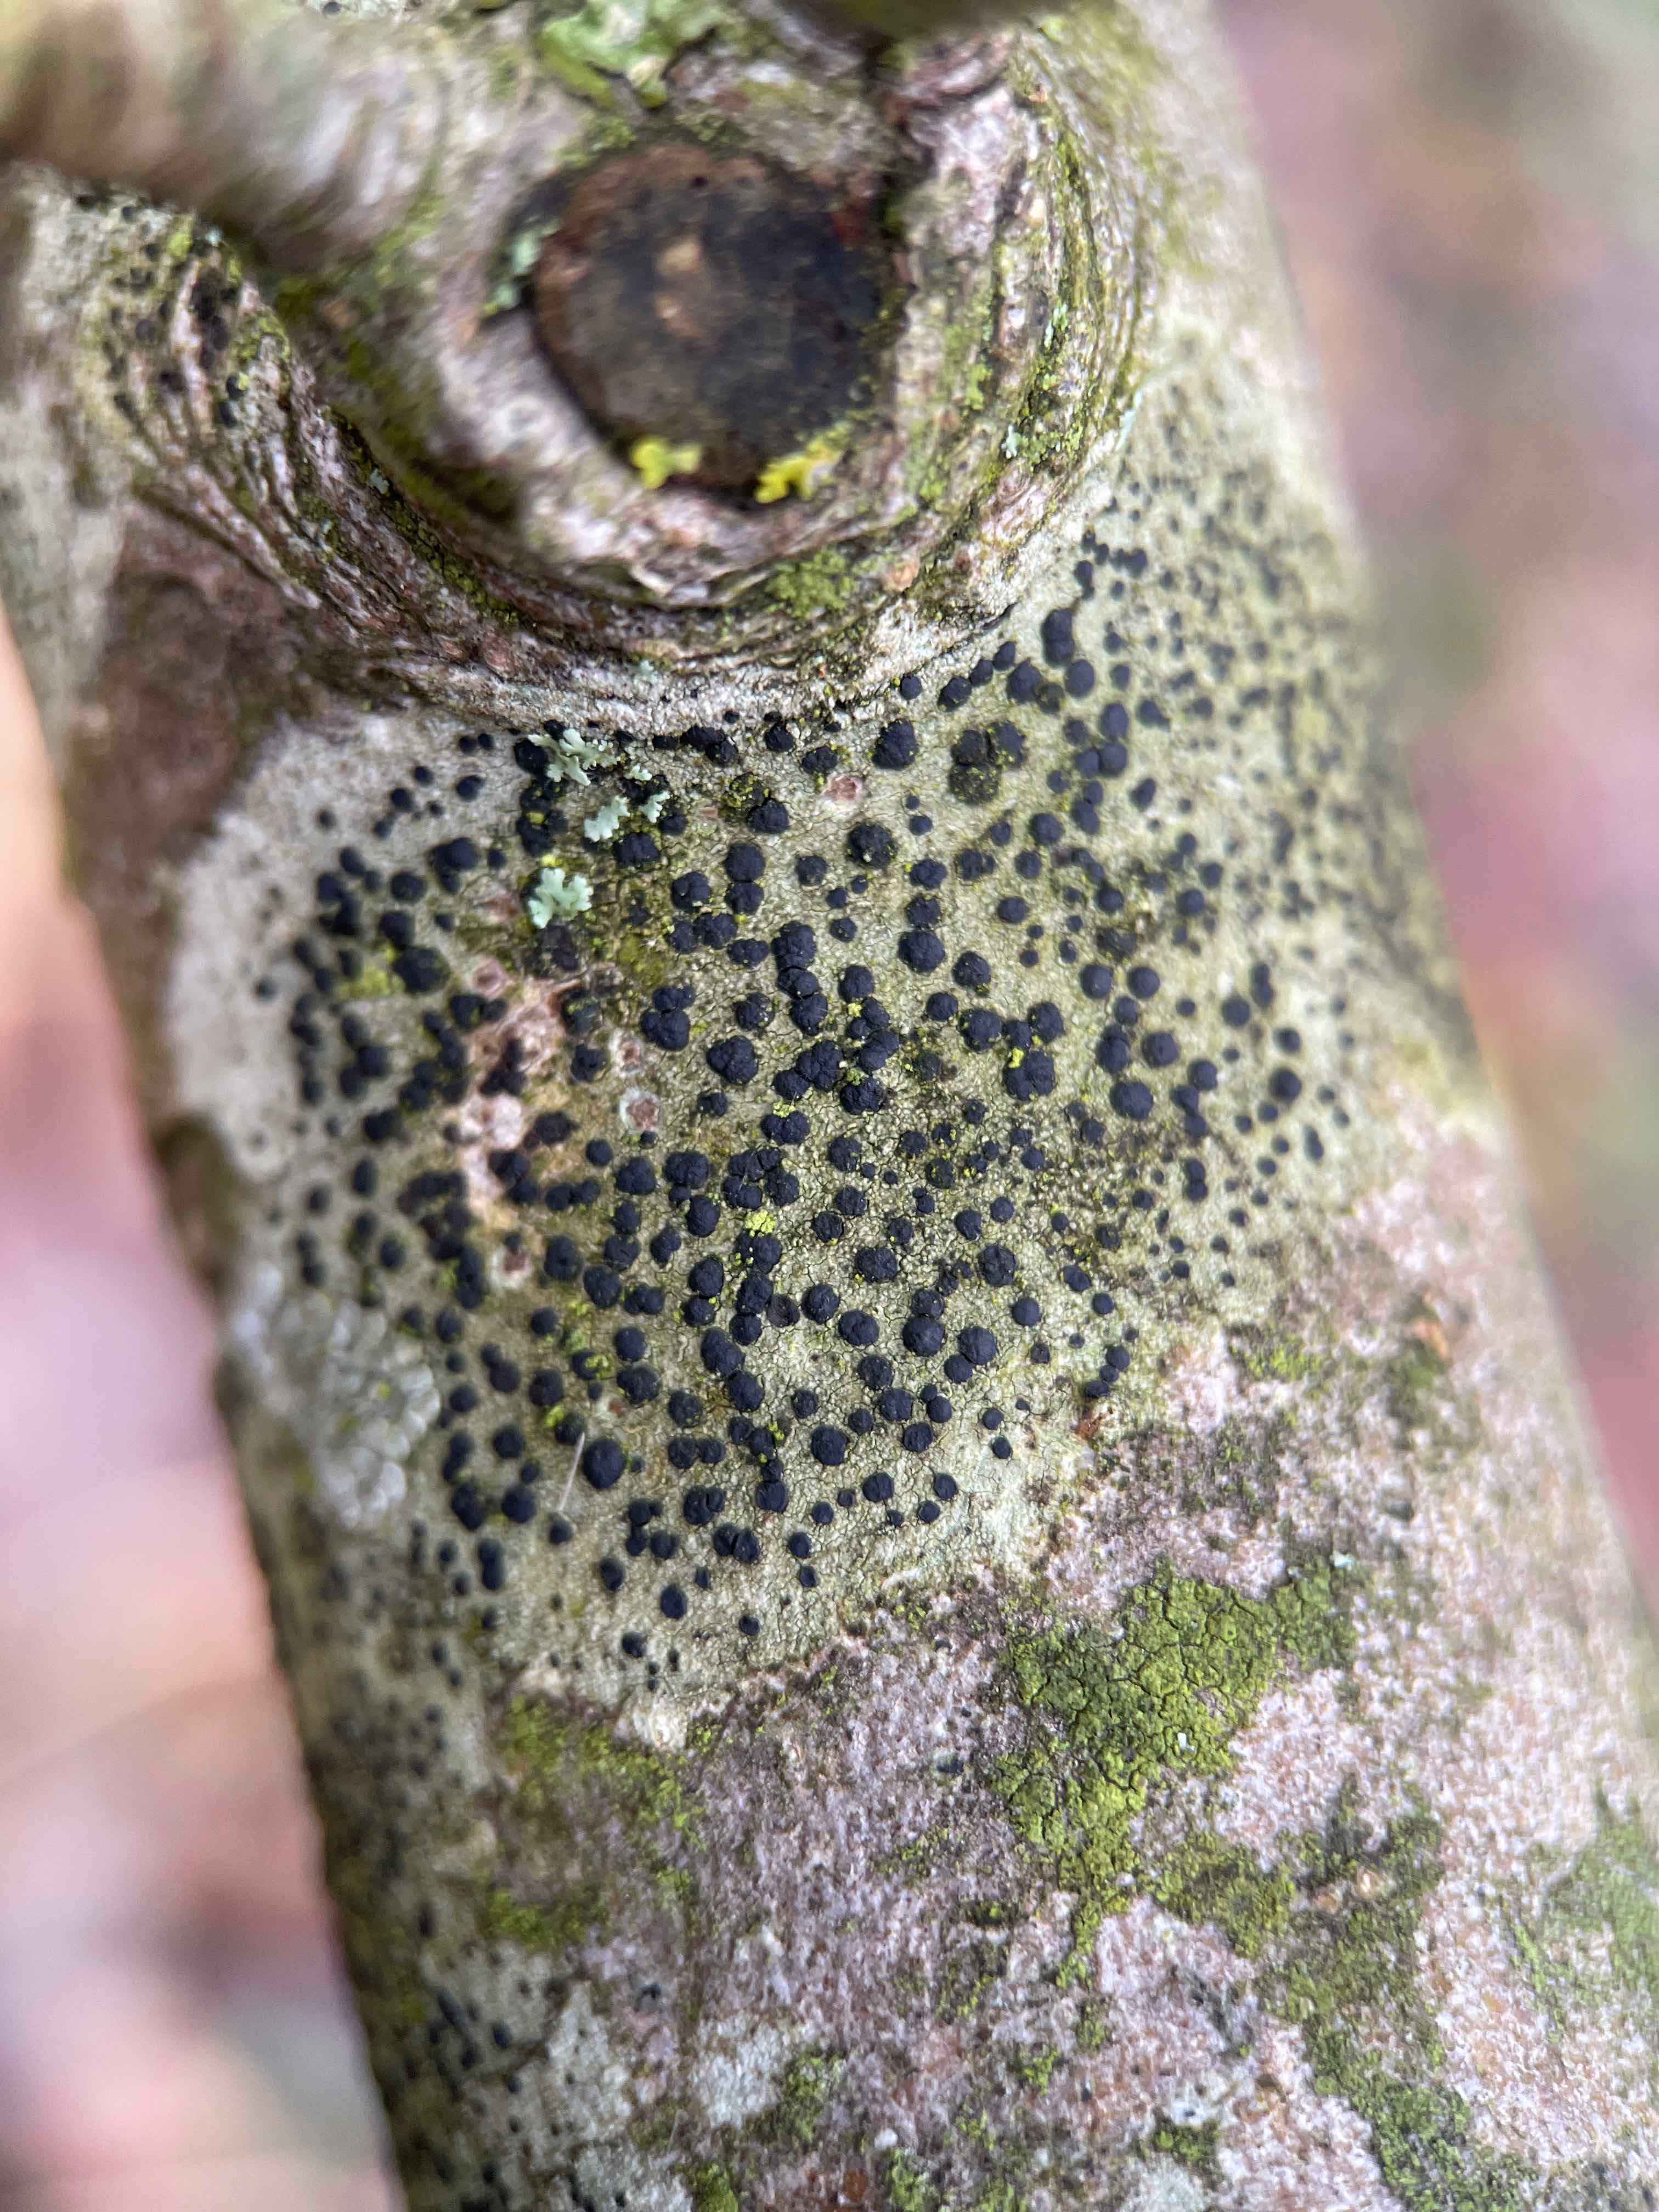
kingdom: Fungi
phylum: Ascomycota
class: Lecanoromycetes
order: Lecanorales
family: Lecanoraceae
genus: Lecidella
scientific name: Lecidella elaeochroma
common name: grågrøn skivelav
